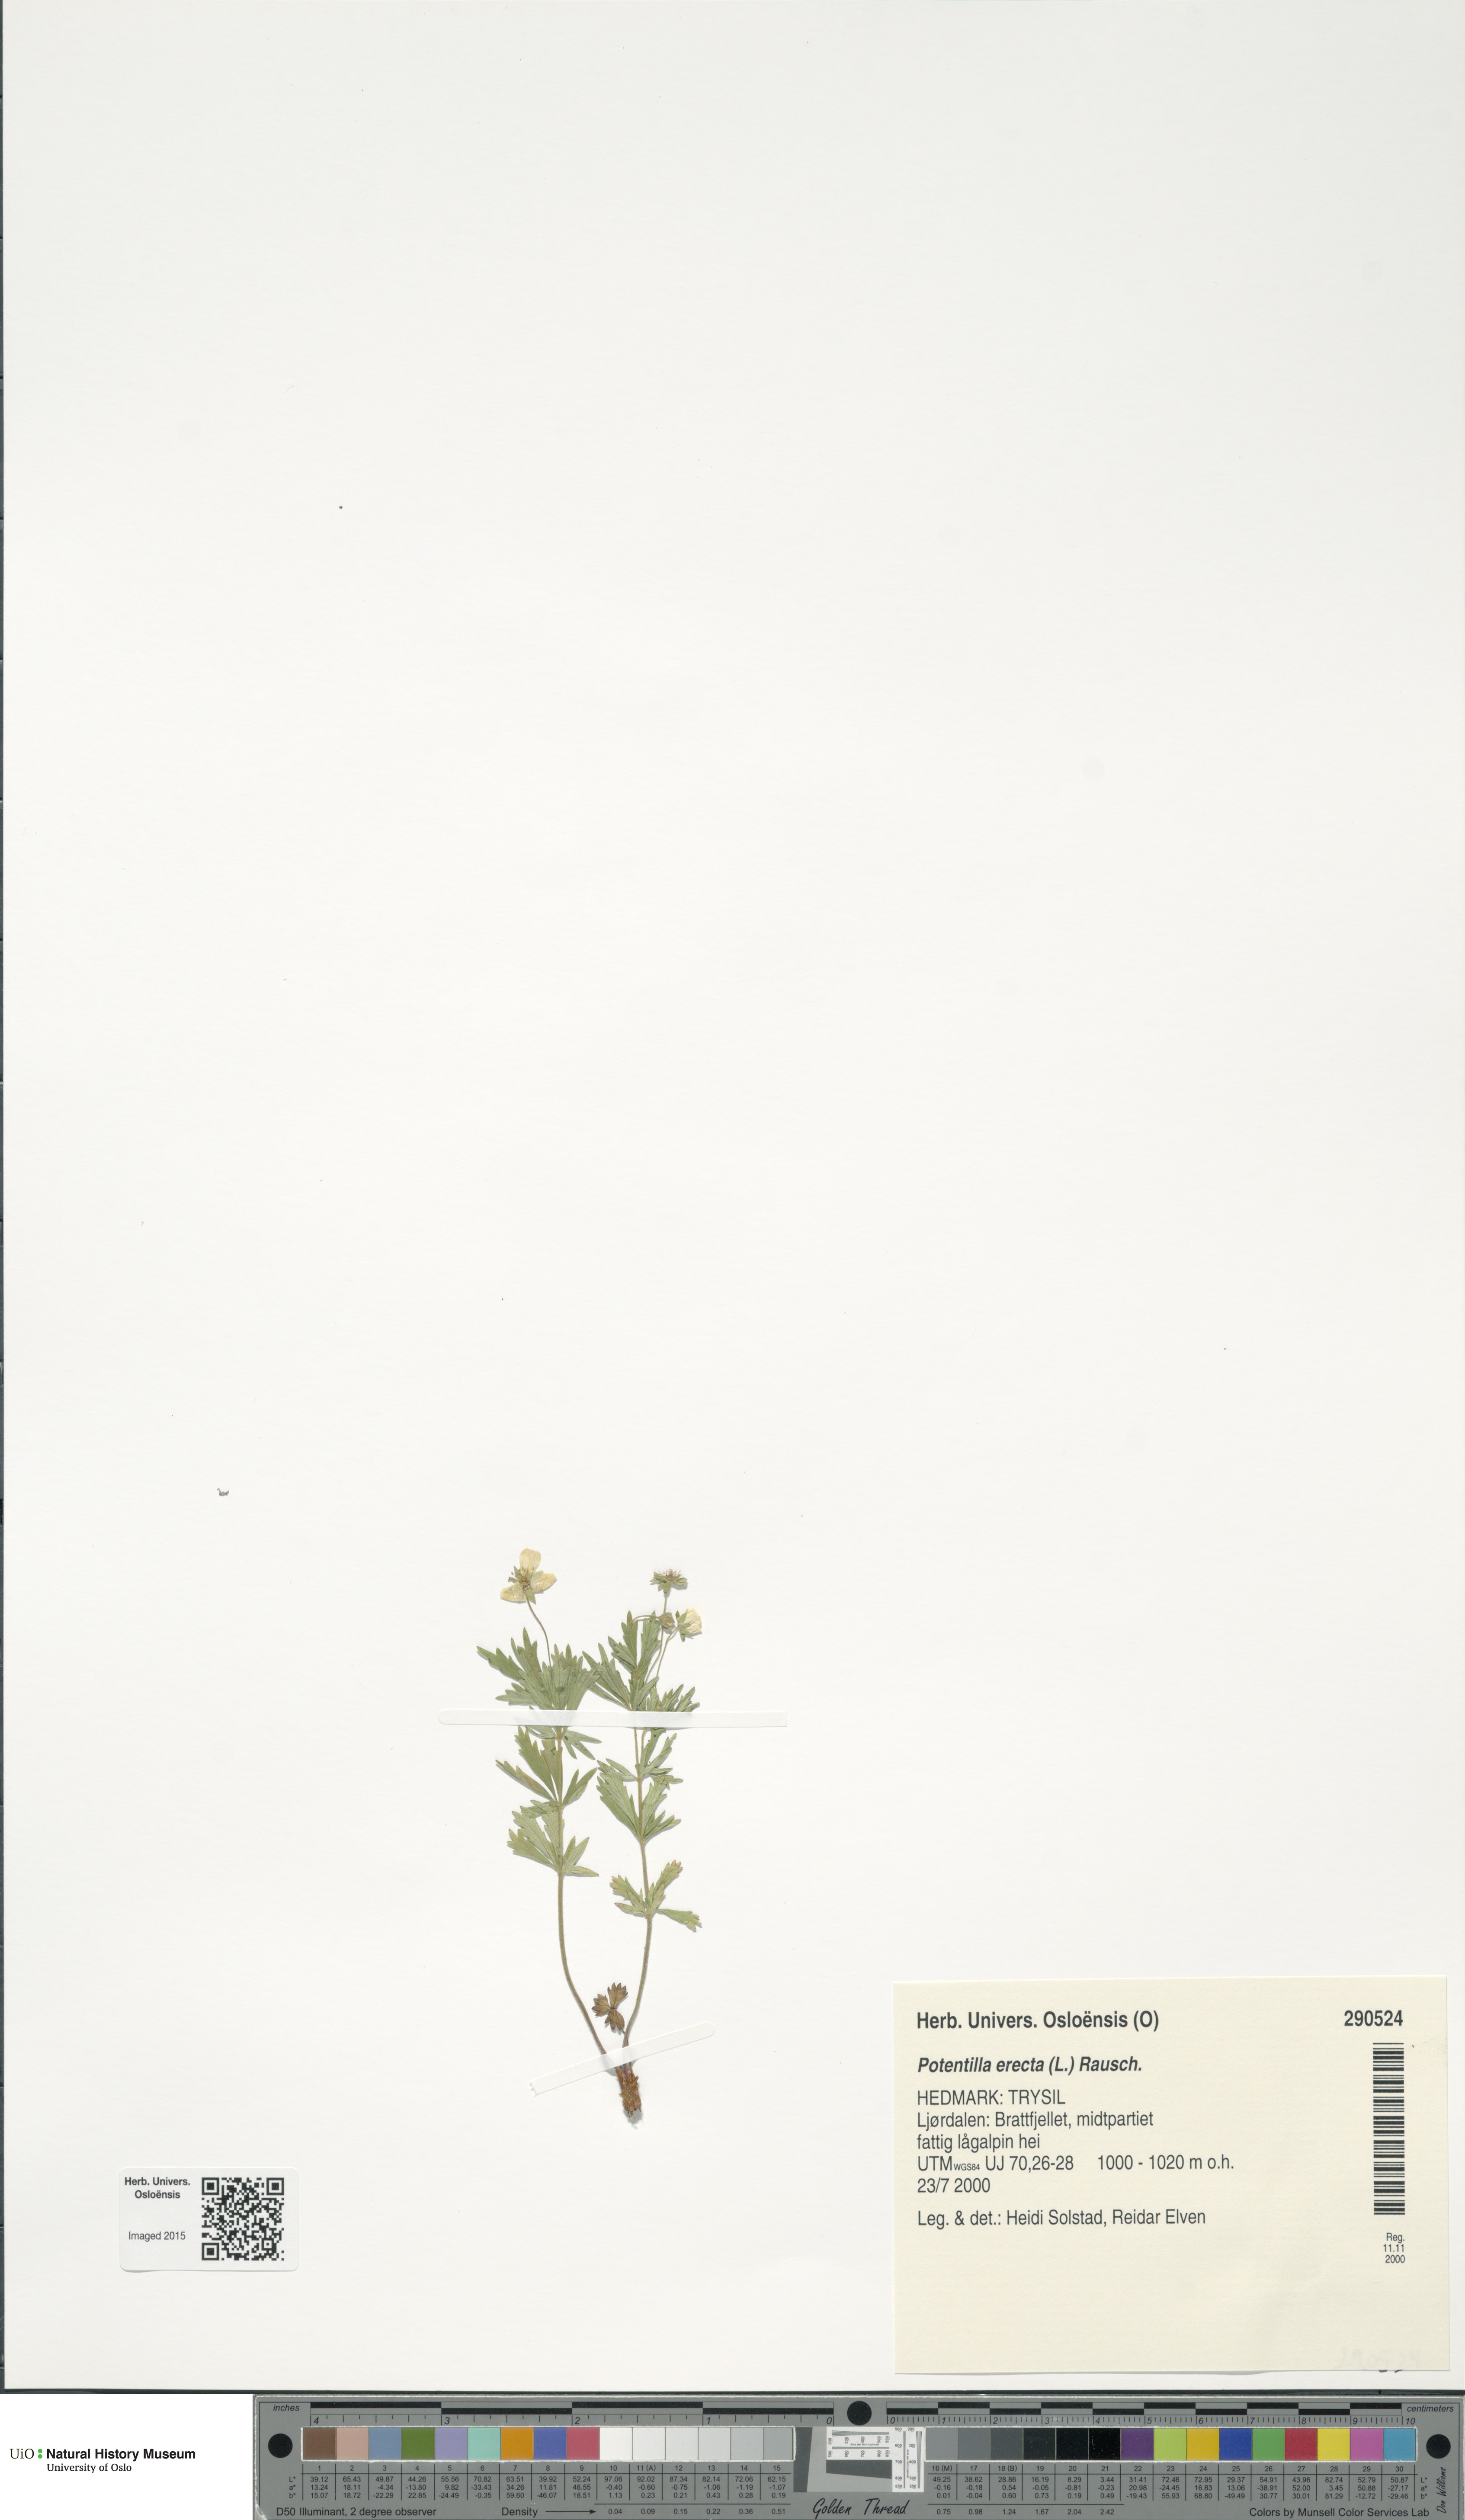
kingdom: Plantae
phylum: Tracheophyta
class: Magnoliopsida
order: Rosales
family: Rosaceae
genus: Potentilla
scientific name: Potentilla erecta
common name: Tormentil
